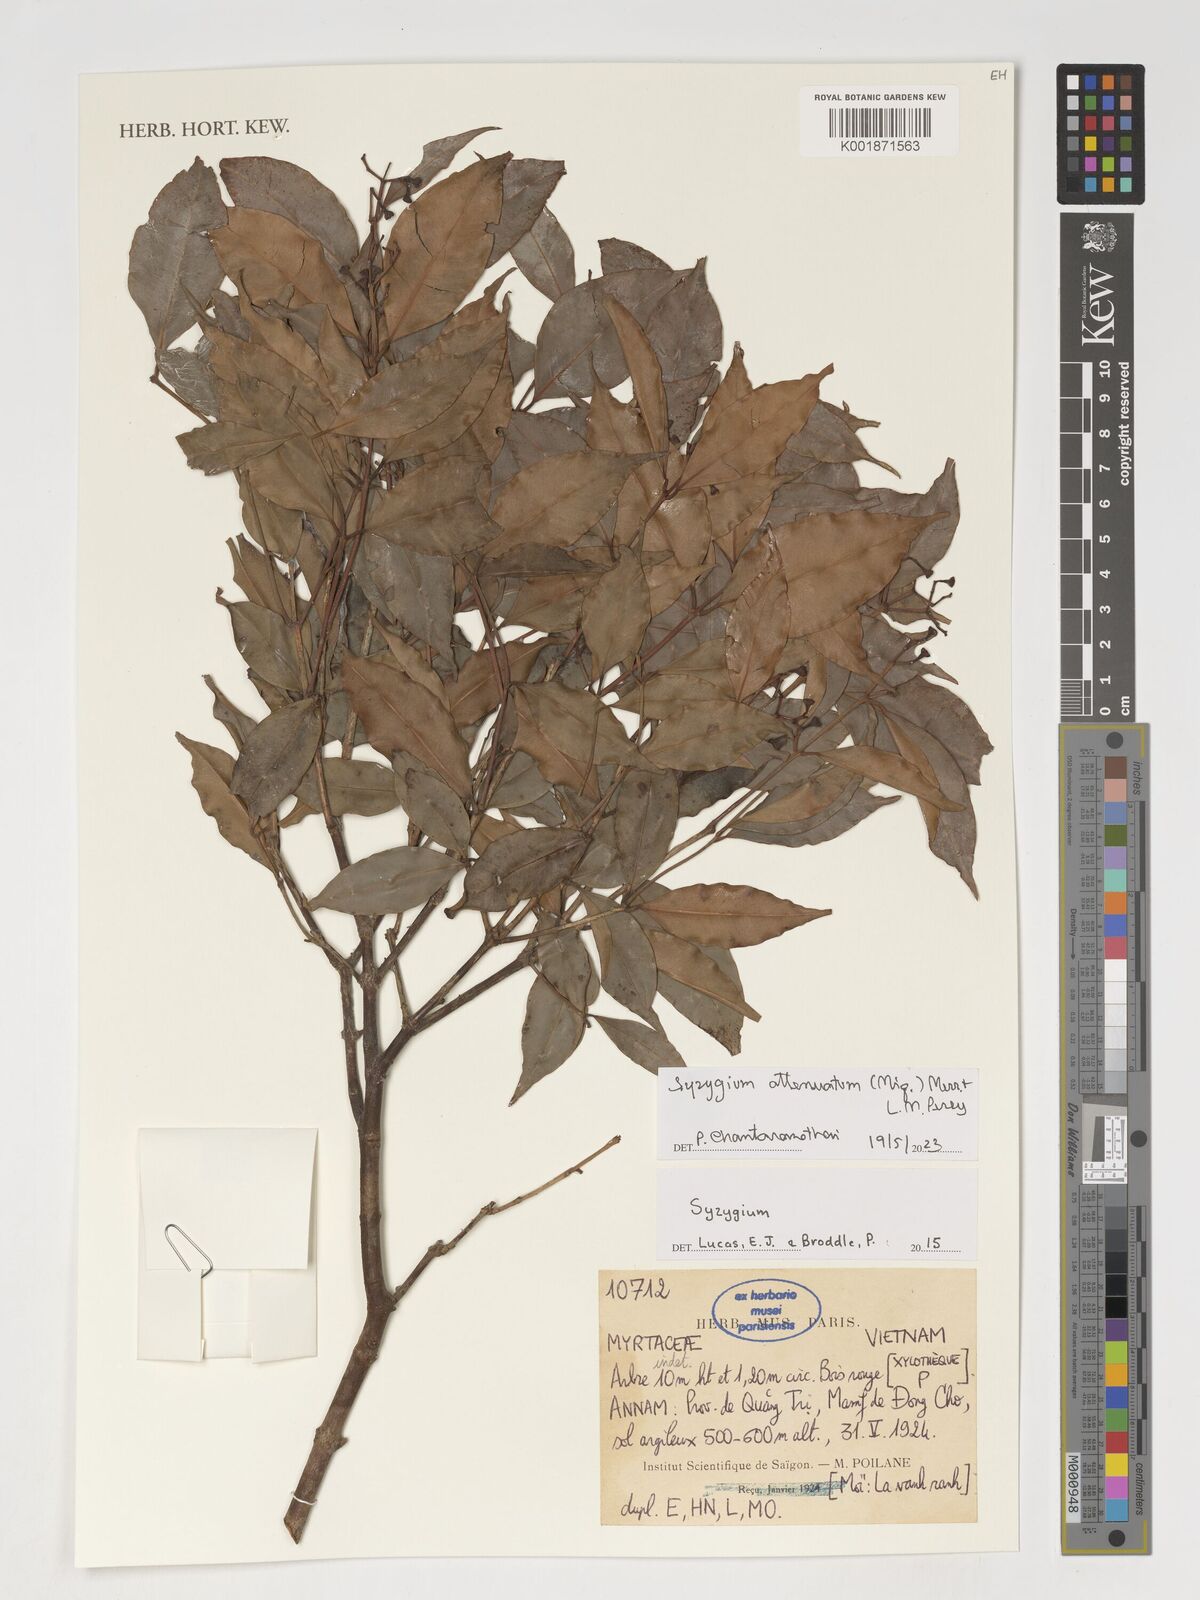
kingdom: Plantae
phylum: Tracheophyta
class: Magnoliopsida
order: Myrtales
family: Myrtaceae
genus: Syzygium
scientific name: Syzygium attenuatum
